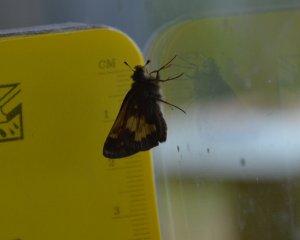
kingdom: Animalia
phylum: Arthropoda
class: Insecta
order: Lepidoptera
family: Hesperiidae
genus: Polites
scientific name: Polites coras
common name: Peck's Skipper
